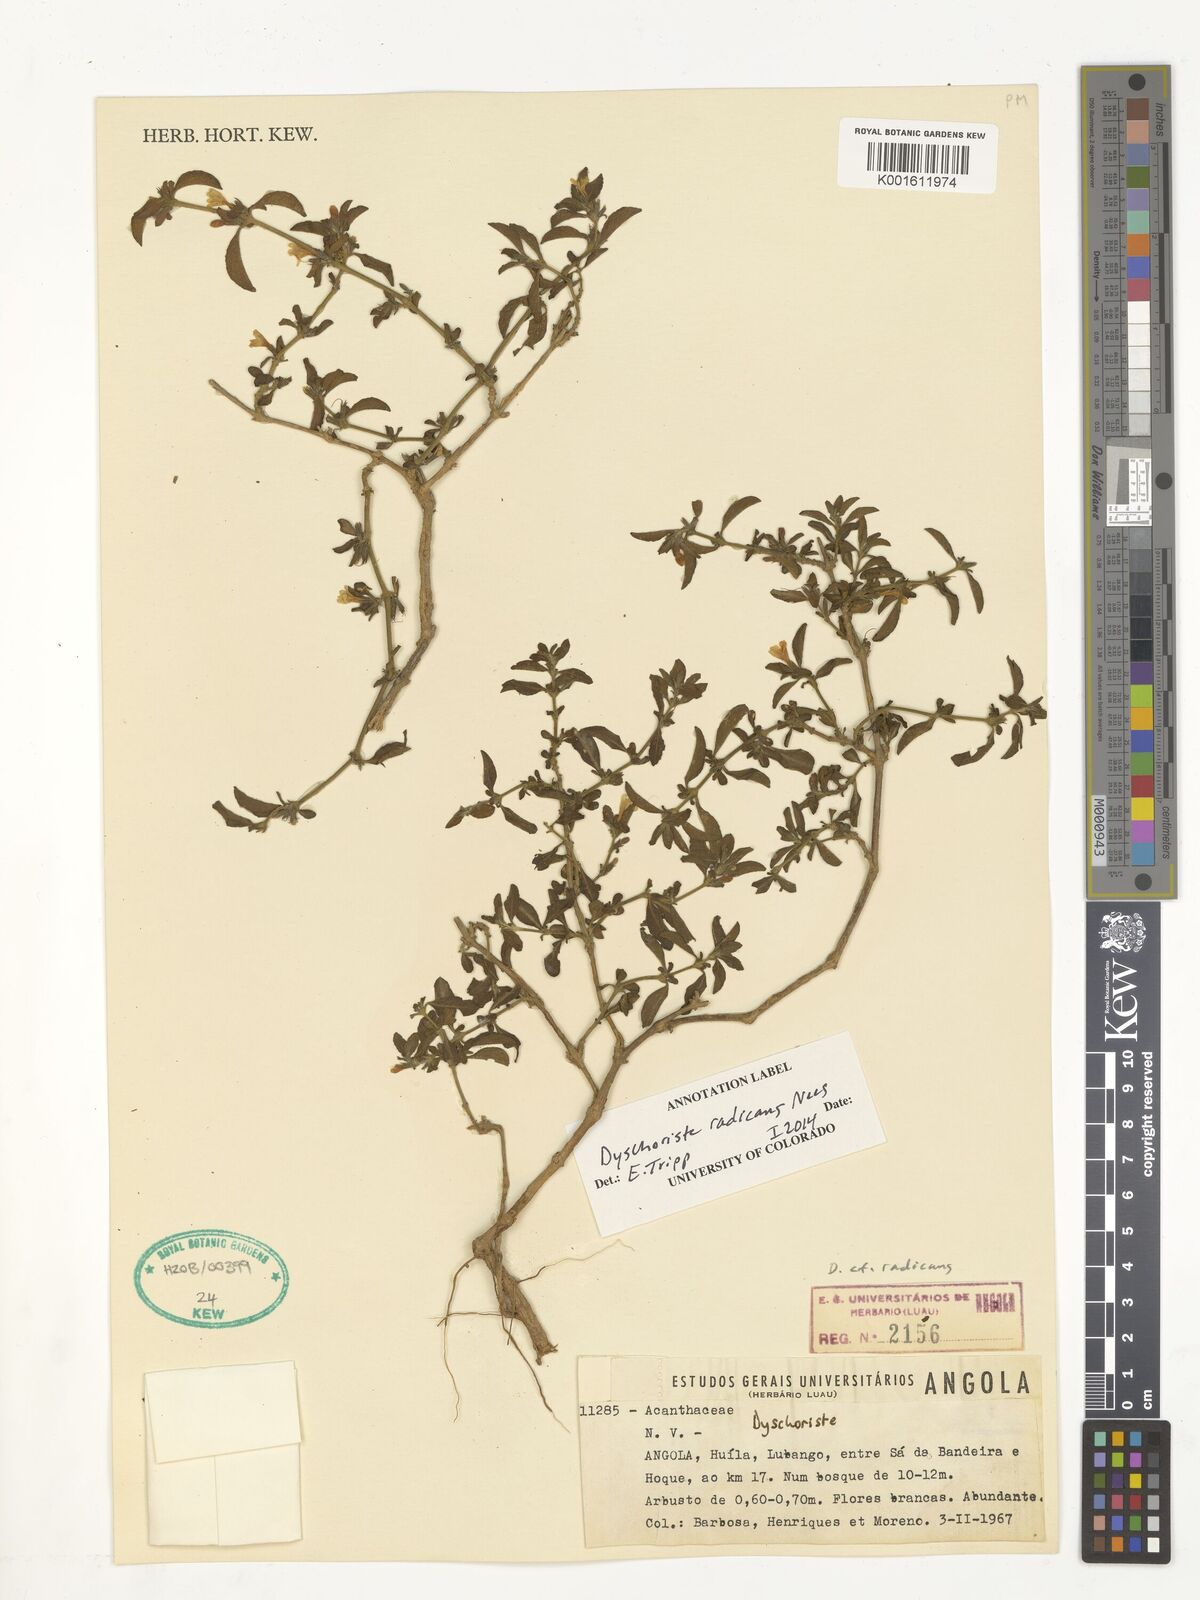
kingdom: Plantae
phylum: Tracheophyta
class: Magnoliopsida
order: Lamiales
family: Acanthaceae
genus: Dyschoriste
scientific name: Dyschoriste radicans
